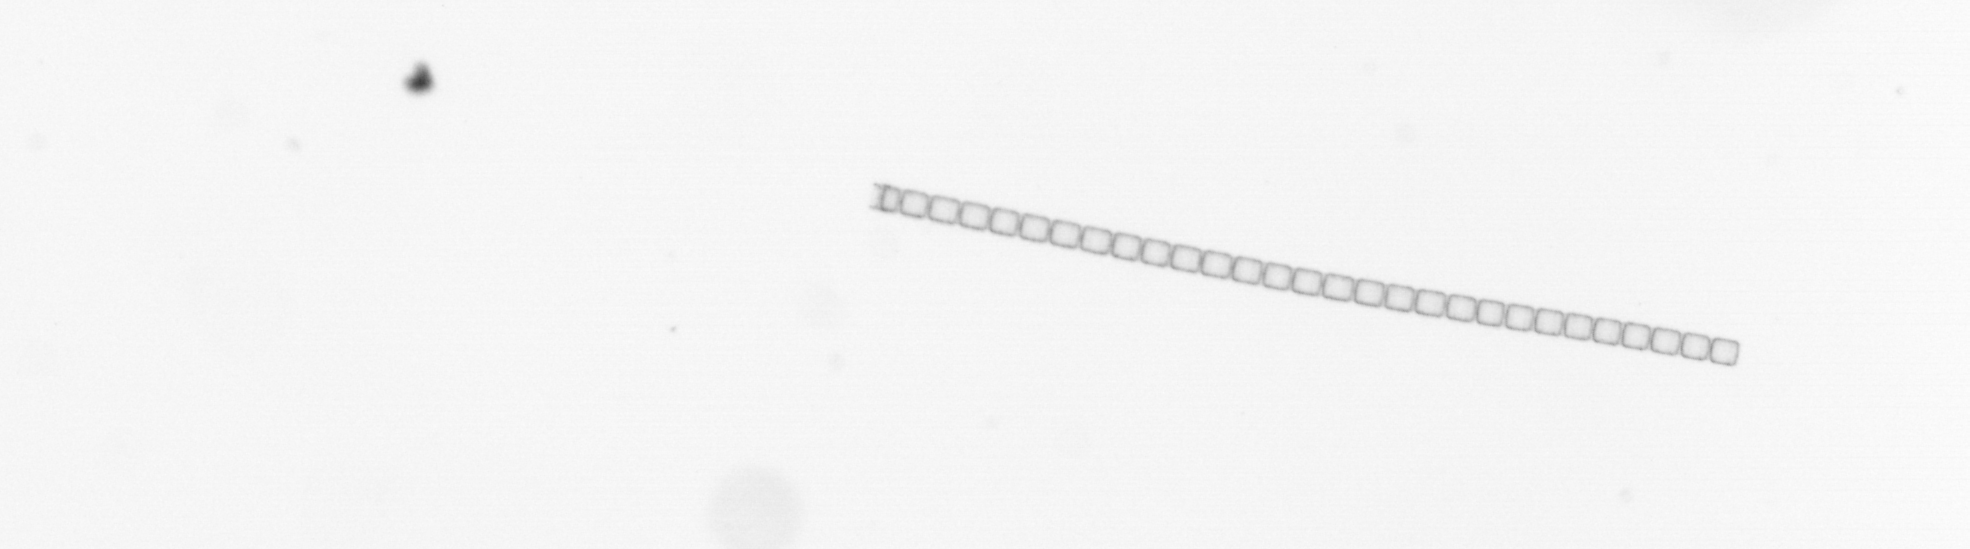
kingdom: Chromista
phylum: Ochrophyta
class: Bacillariophyceae
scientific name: Bacillariophyceae
